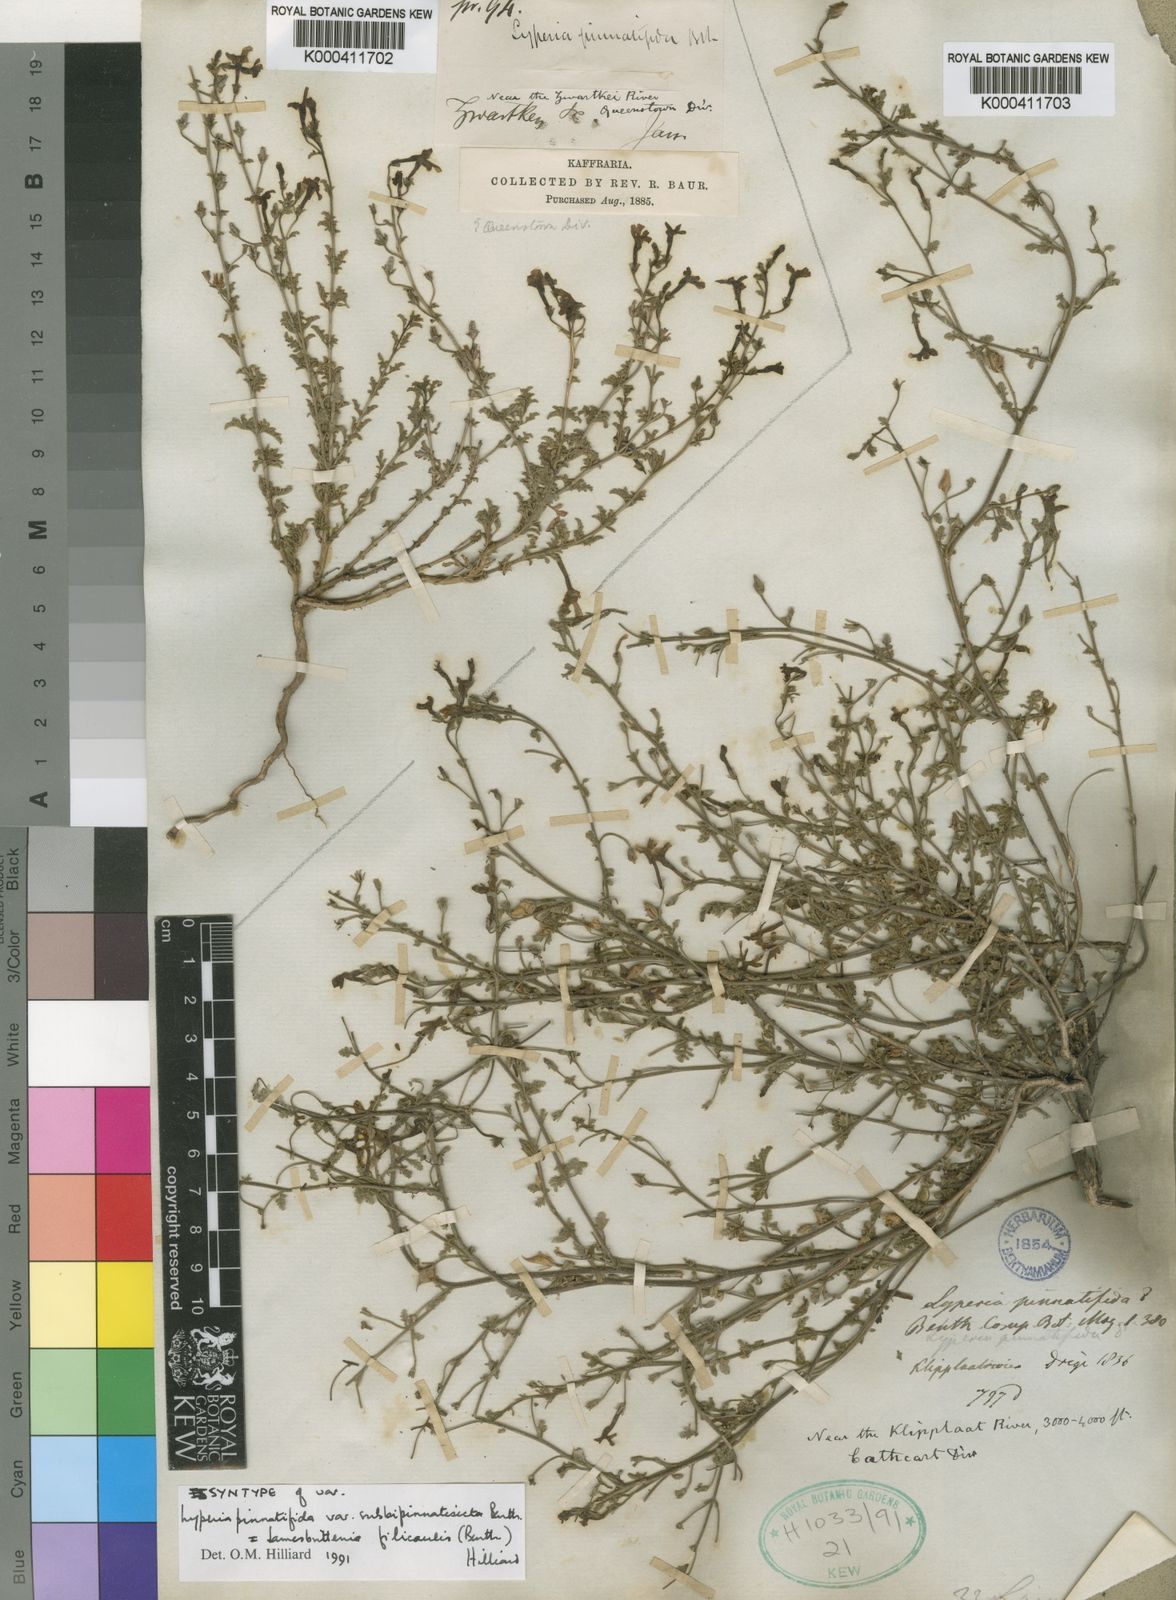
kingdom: Plantae
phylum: Tracheophyta
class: Magnoliopsida
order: Lamiales
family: Scrophulariaceae
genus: Jamesbrittenia
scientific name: Jamesbrittenia filicaulis
